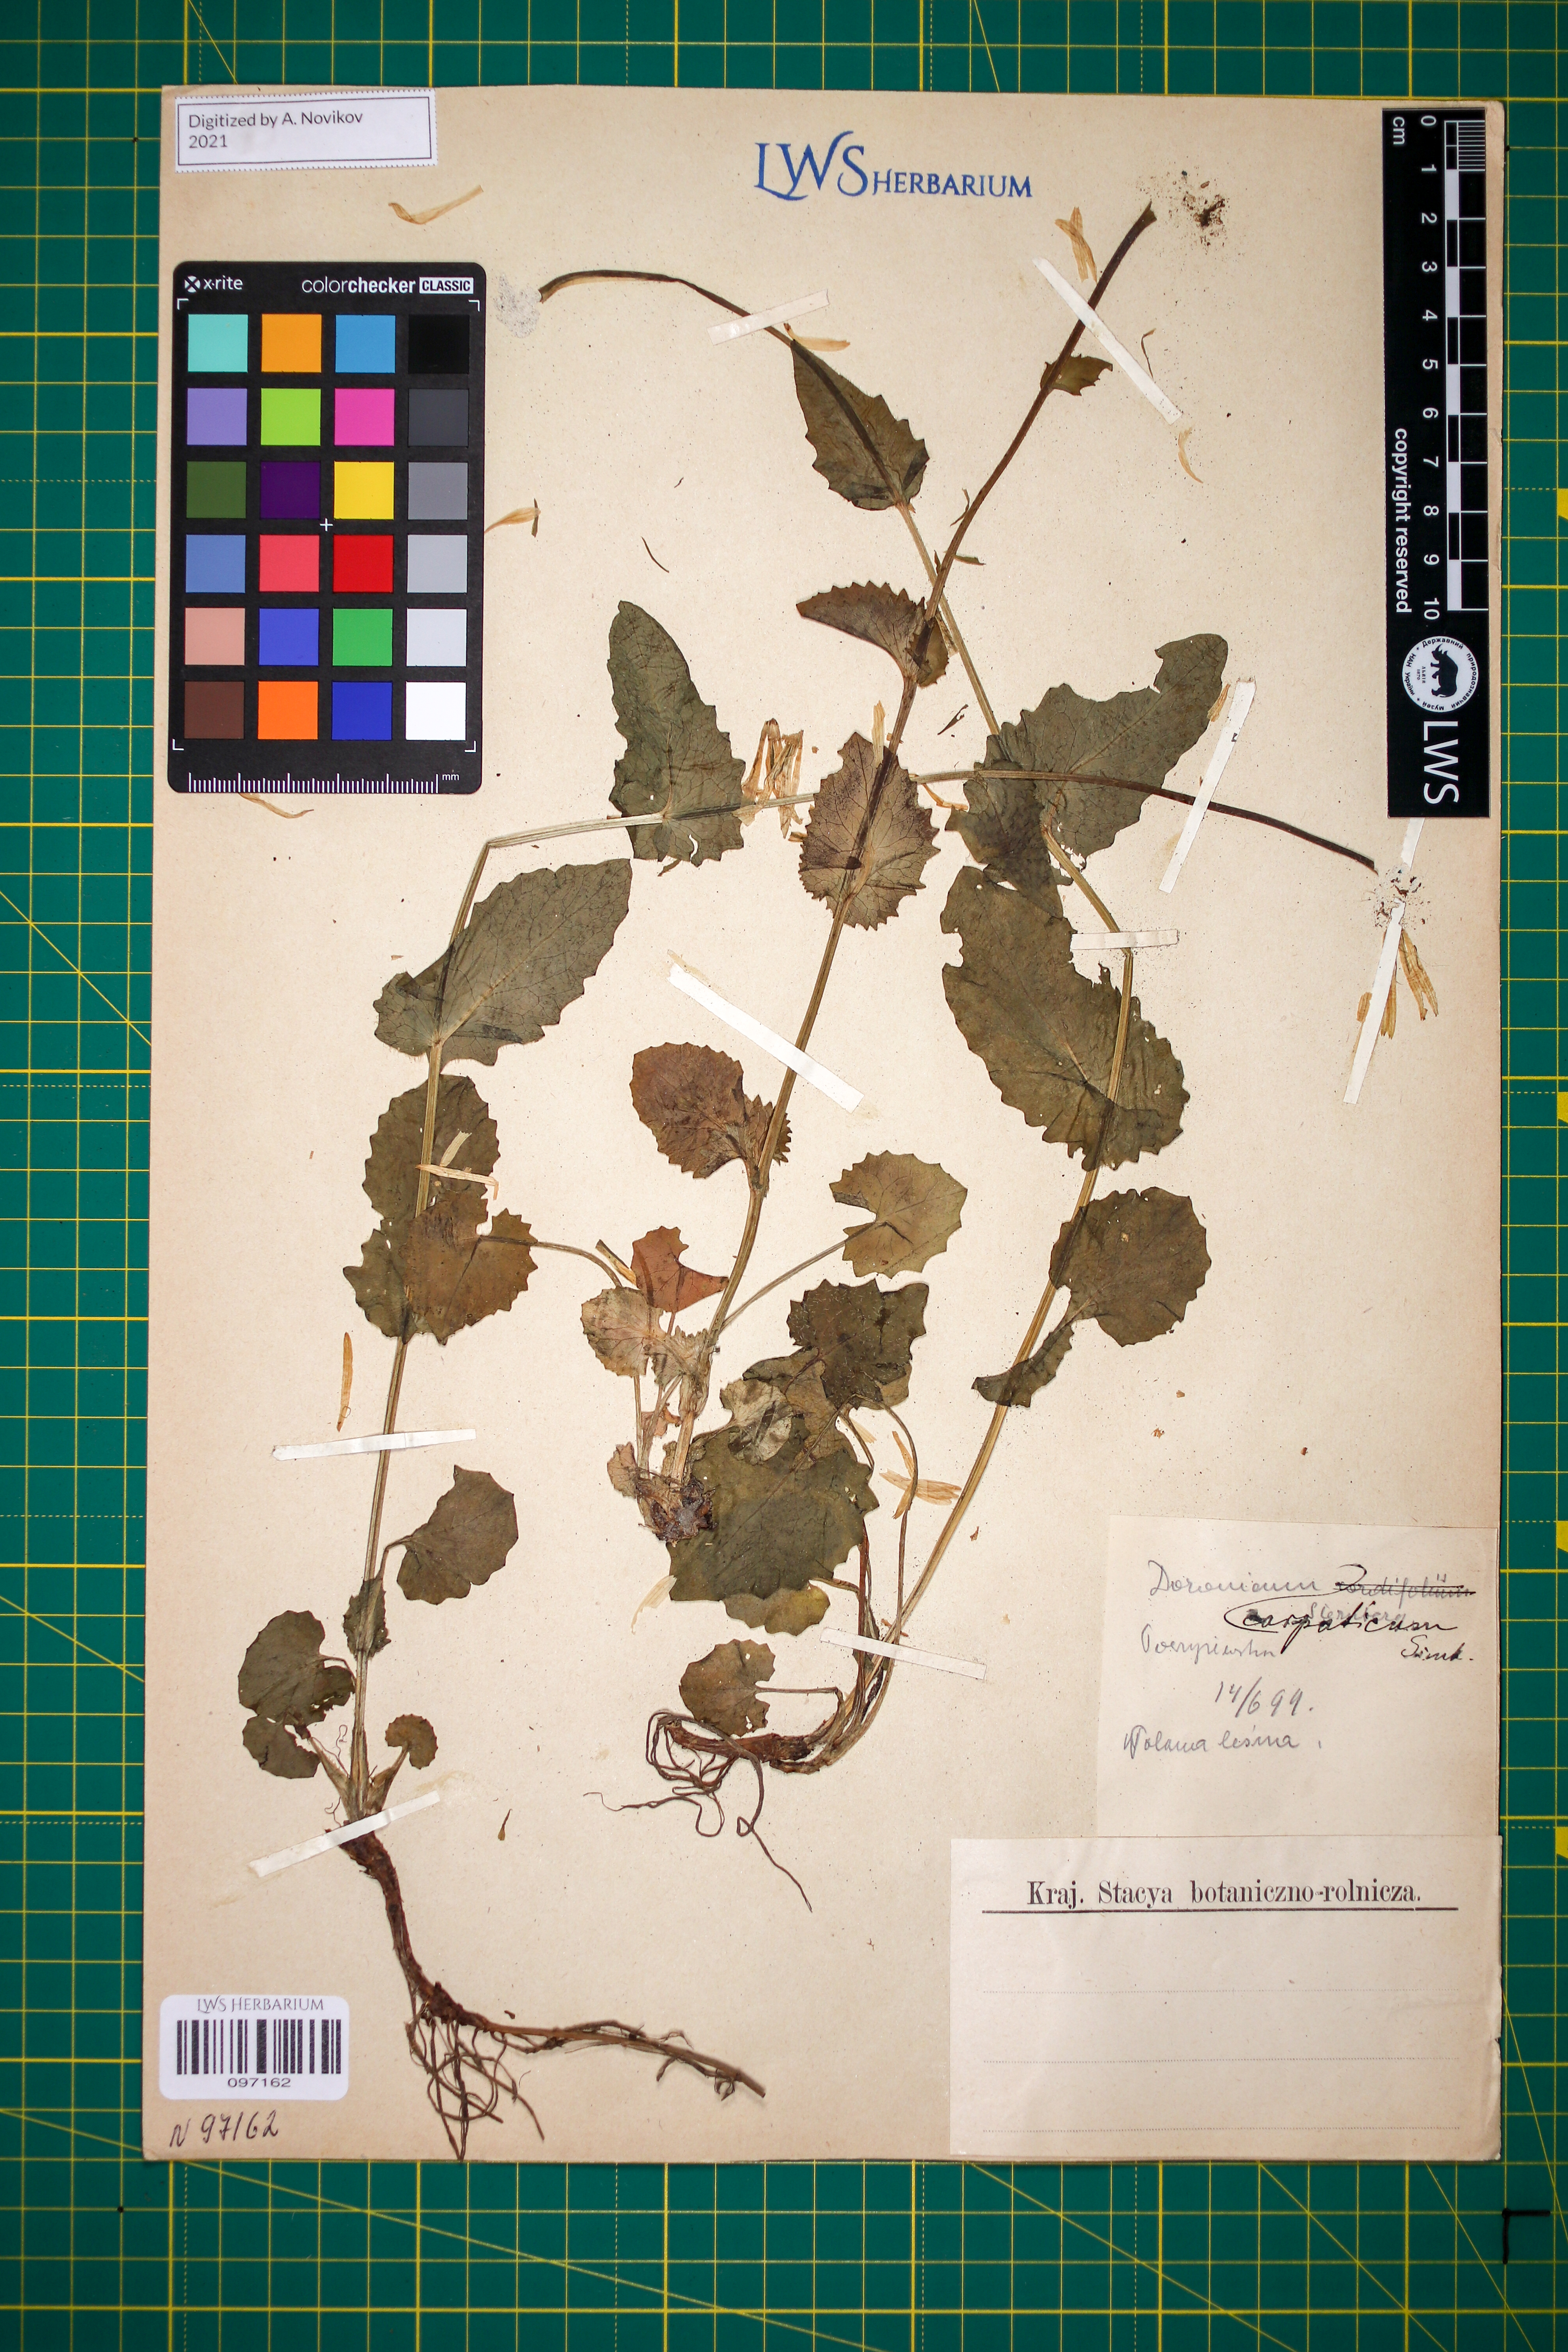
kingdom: Plantae
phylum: Tracheophyta
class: Magnoliopsida
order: Asterales
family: Asteraceae
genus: Doronicum
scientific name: Doronicum carpaticum
